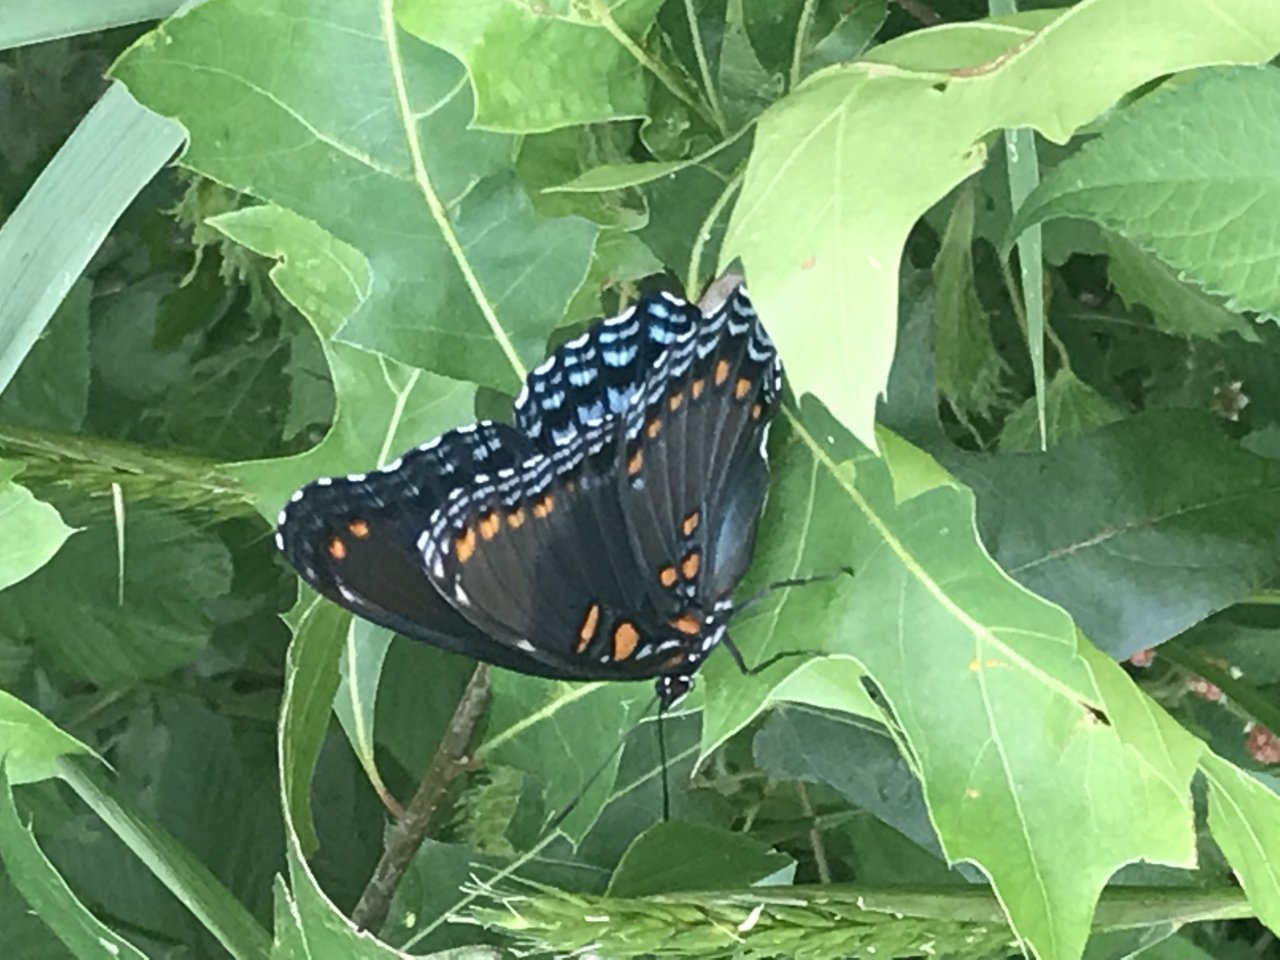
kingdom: Animalia
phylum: Arthropoda
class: Insecta
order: Lepidoptera
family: Nymphalidae
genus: Limenitis
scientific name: Limenitis astyanax
